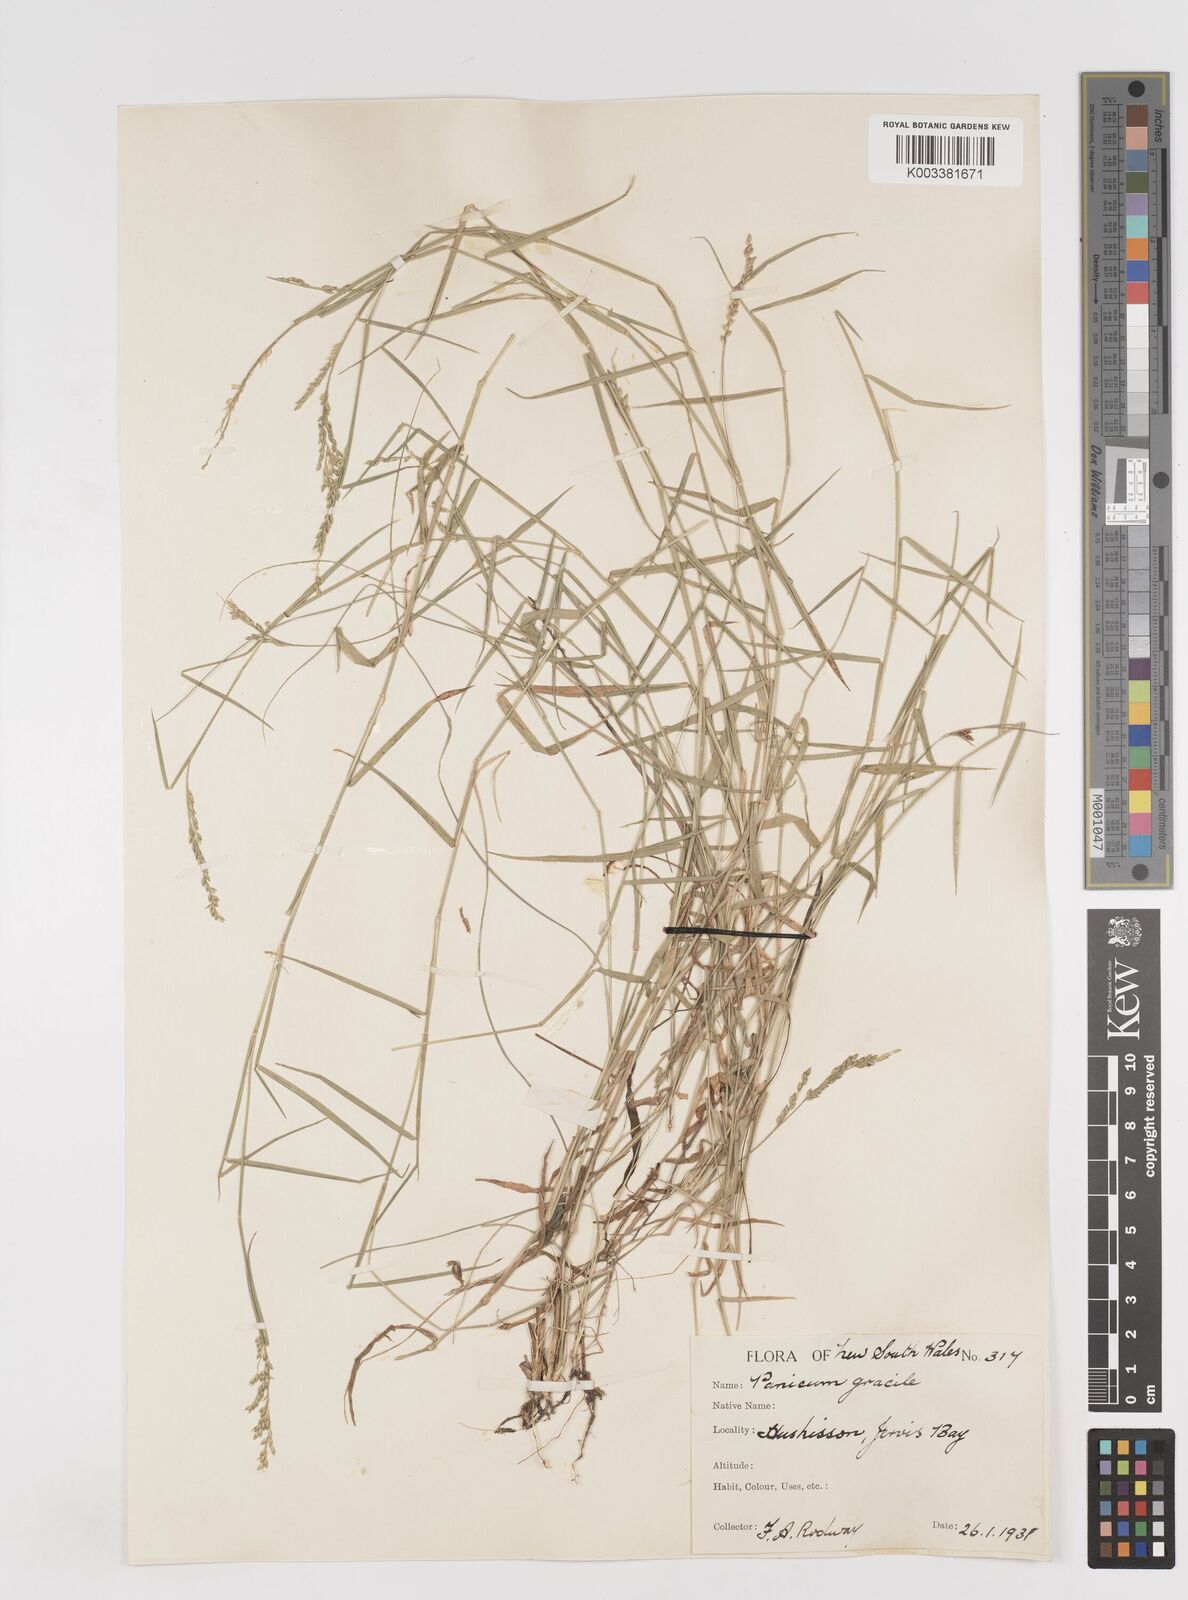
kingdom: Plantae
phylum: Tracheophyta
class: Liliopsida
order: Poales
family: Poaceae
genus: Entolasia
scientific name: Entolasia marginata
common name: Australian panicgrass
